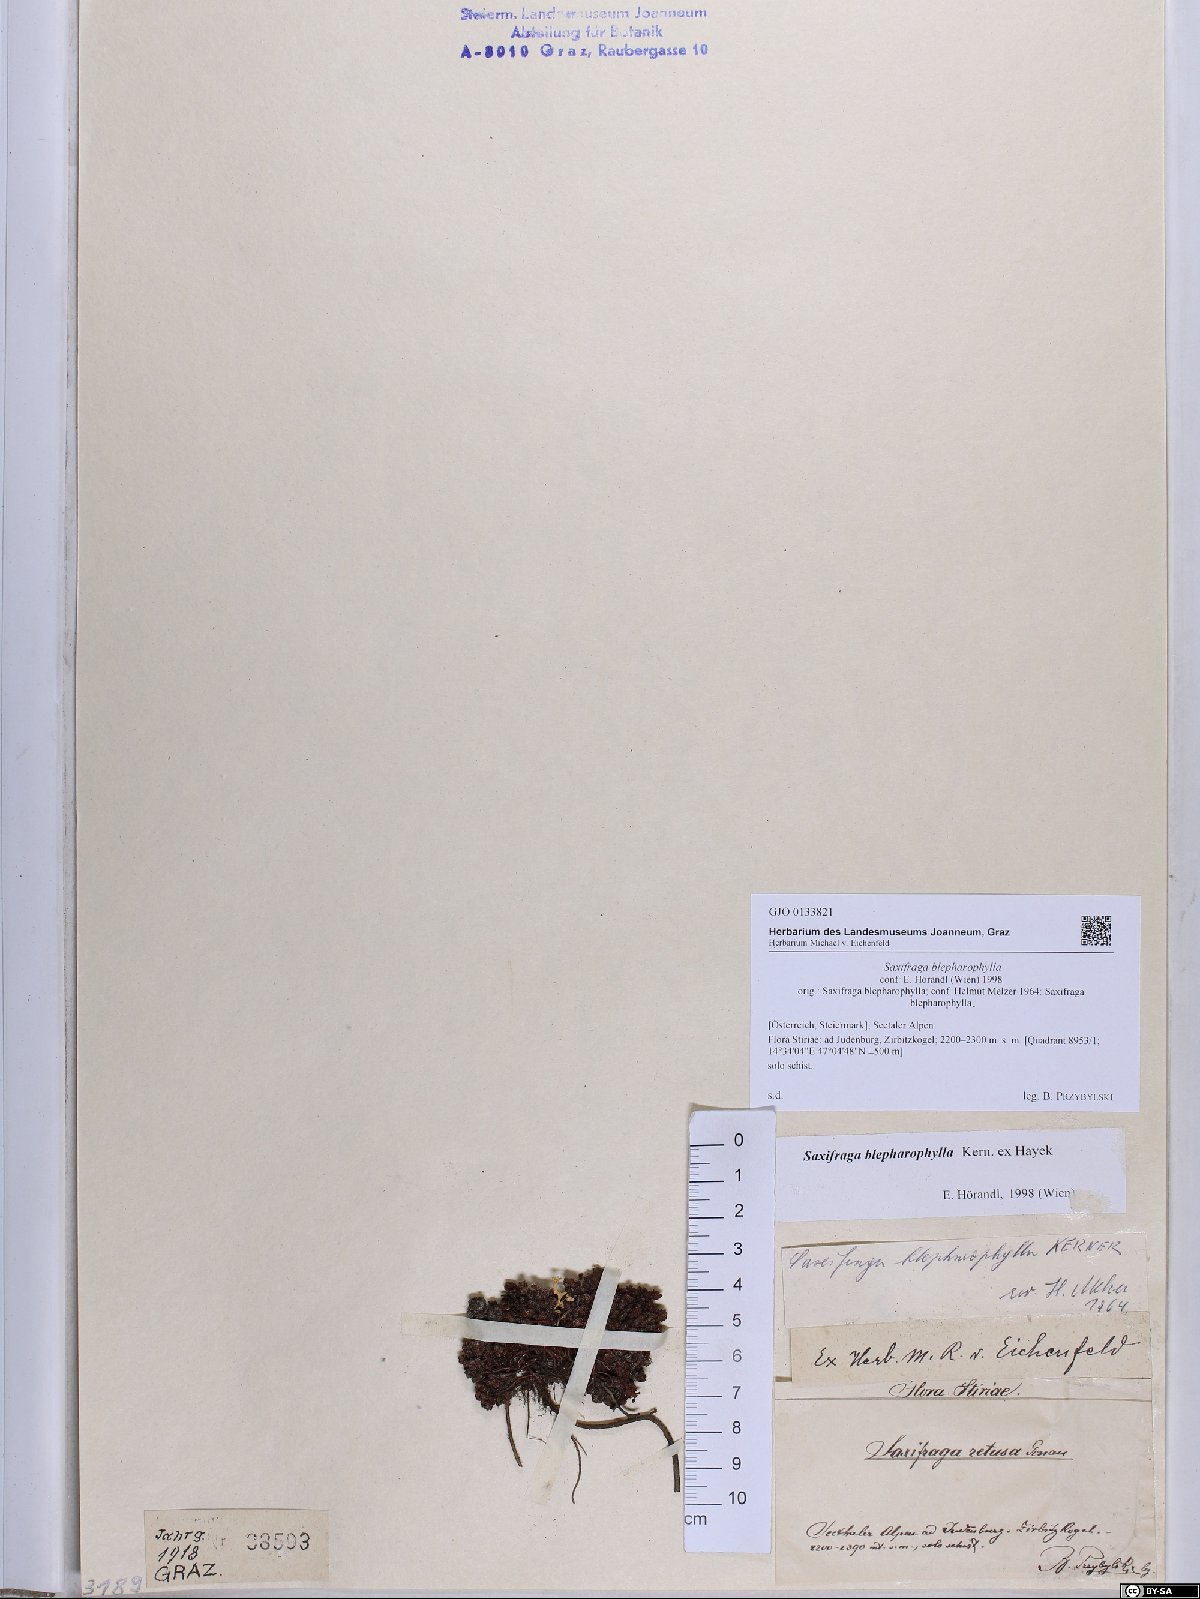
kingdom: Plantae
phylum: Tracheophyta
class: Magnoliopsida
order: Saxifragales
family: Saxifragaceae
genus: Saxifraga
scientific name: Saxifraga oppositifolia
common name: Purple saxifrage
